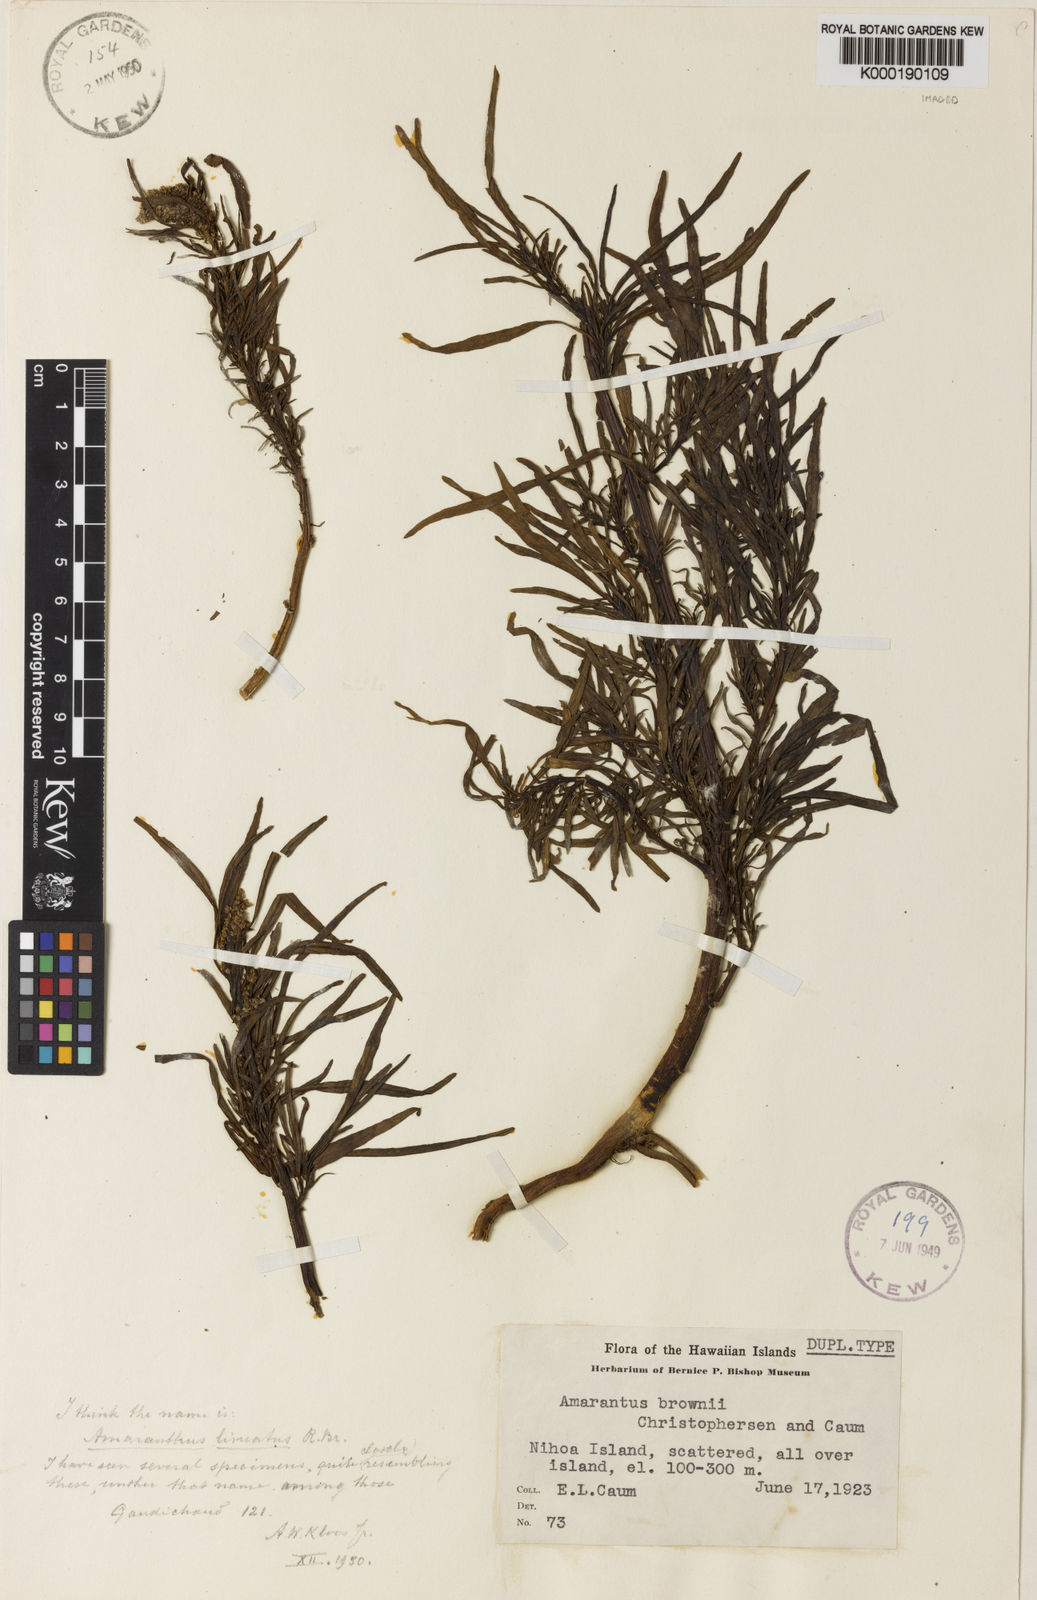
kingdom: Plantae
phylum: Tracheophyta
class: Magnoliopsida
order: Caryophyllales
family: Amaranthaceae
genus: Amaranthus
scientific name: Amaranthus brownii
